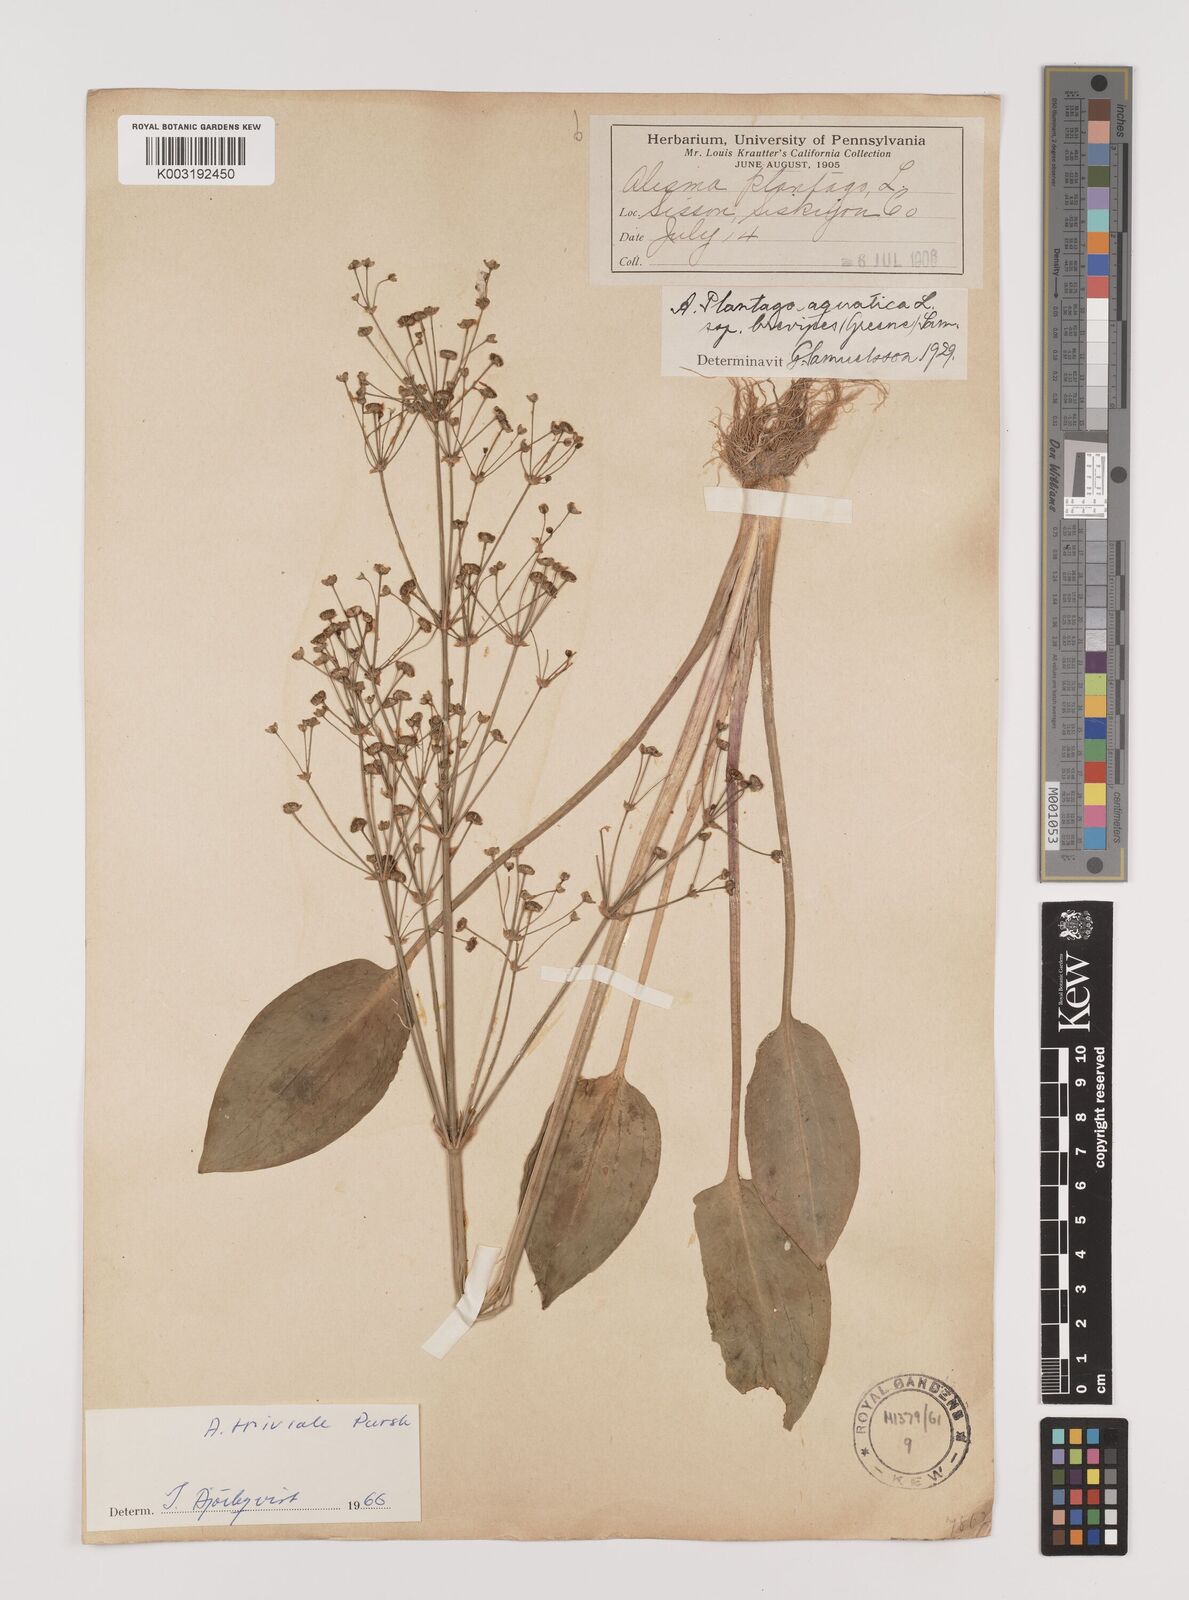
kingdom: Plantae
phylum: Tracheophyta
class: Liliopsida
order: Alismatales
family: Alismataceae
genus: Alisma
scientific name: Alisma triviale
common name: Northern water-plantain
